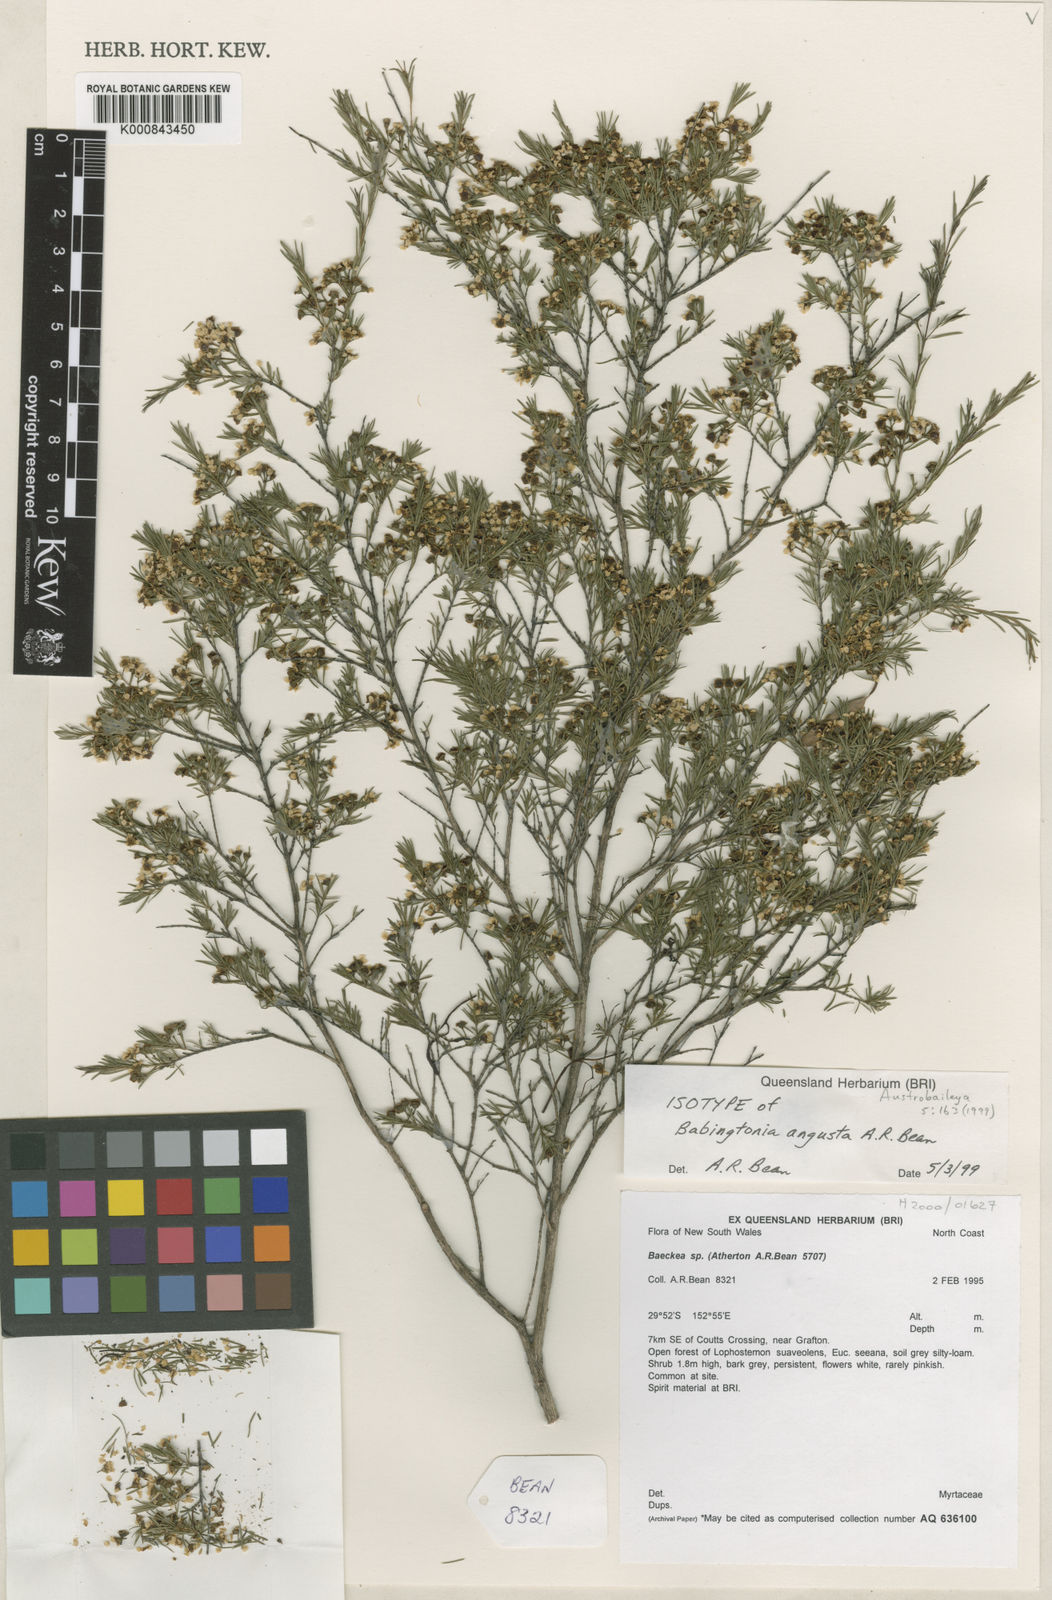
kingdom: Plantae
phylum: Tracheophyta
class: Magnoliopsida
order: Myrtales
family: Myrtaceae
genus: Sannantha
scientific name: Sannantha angusta
